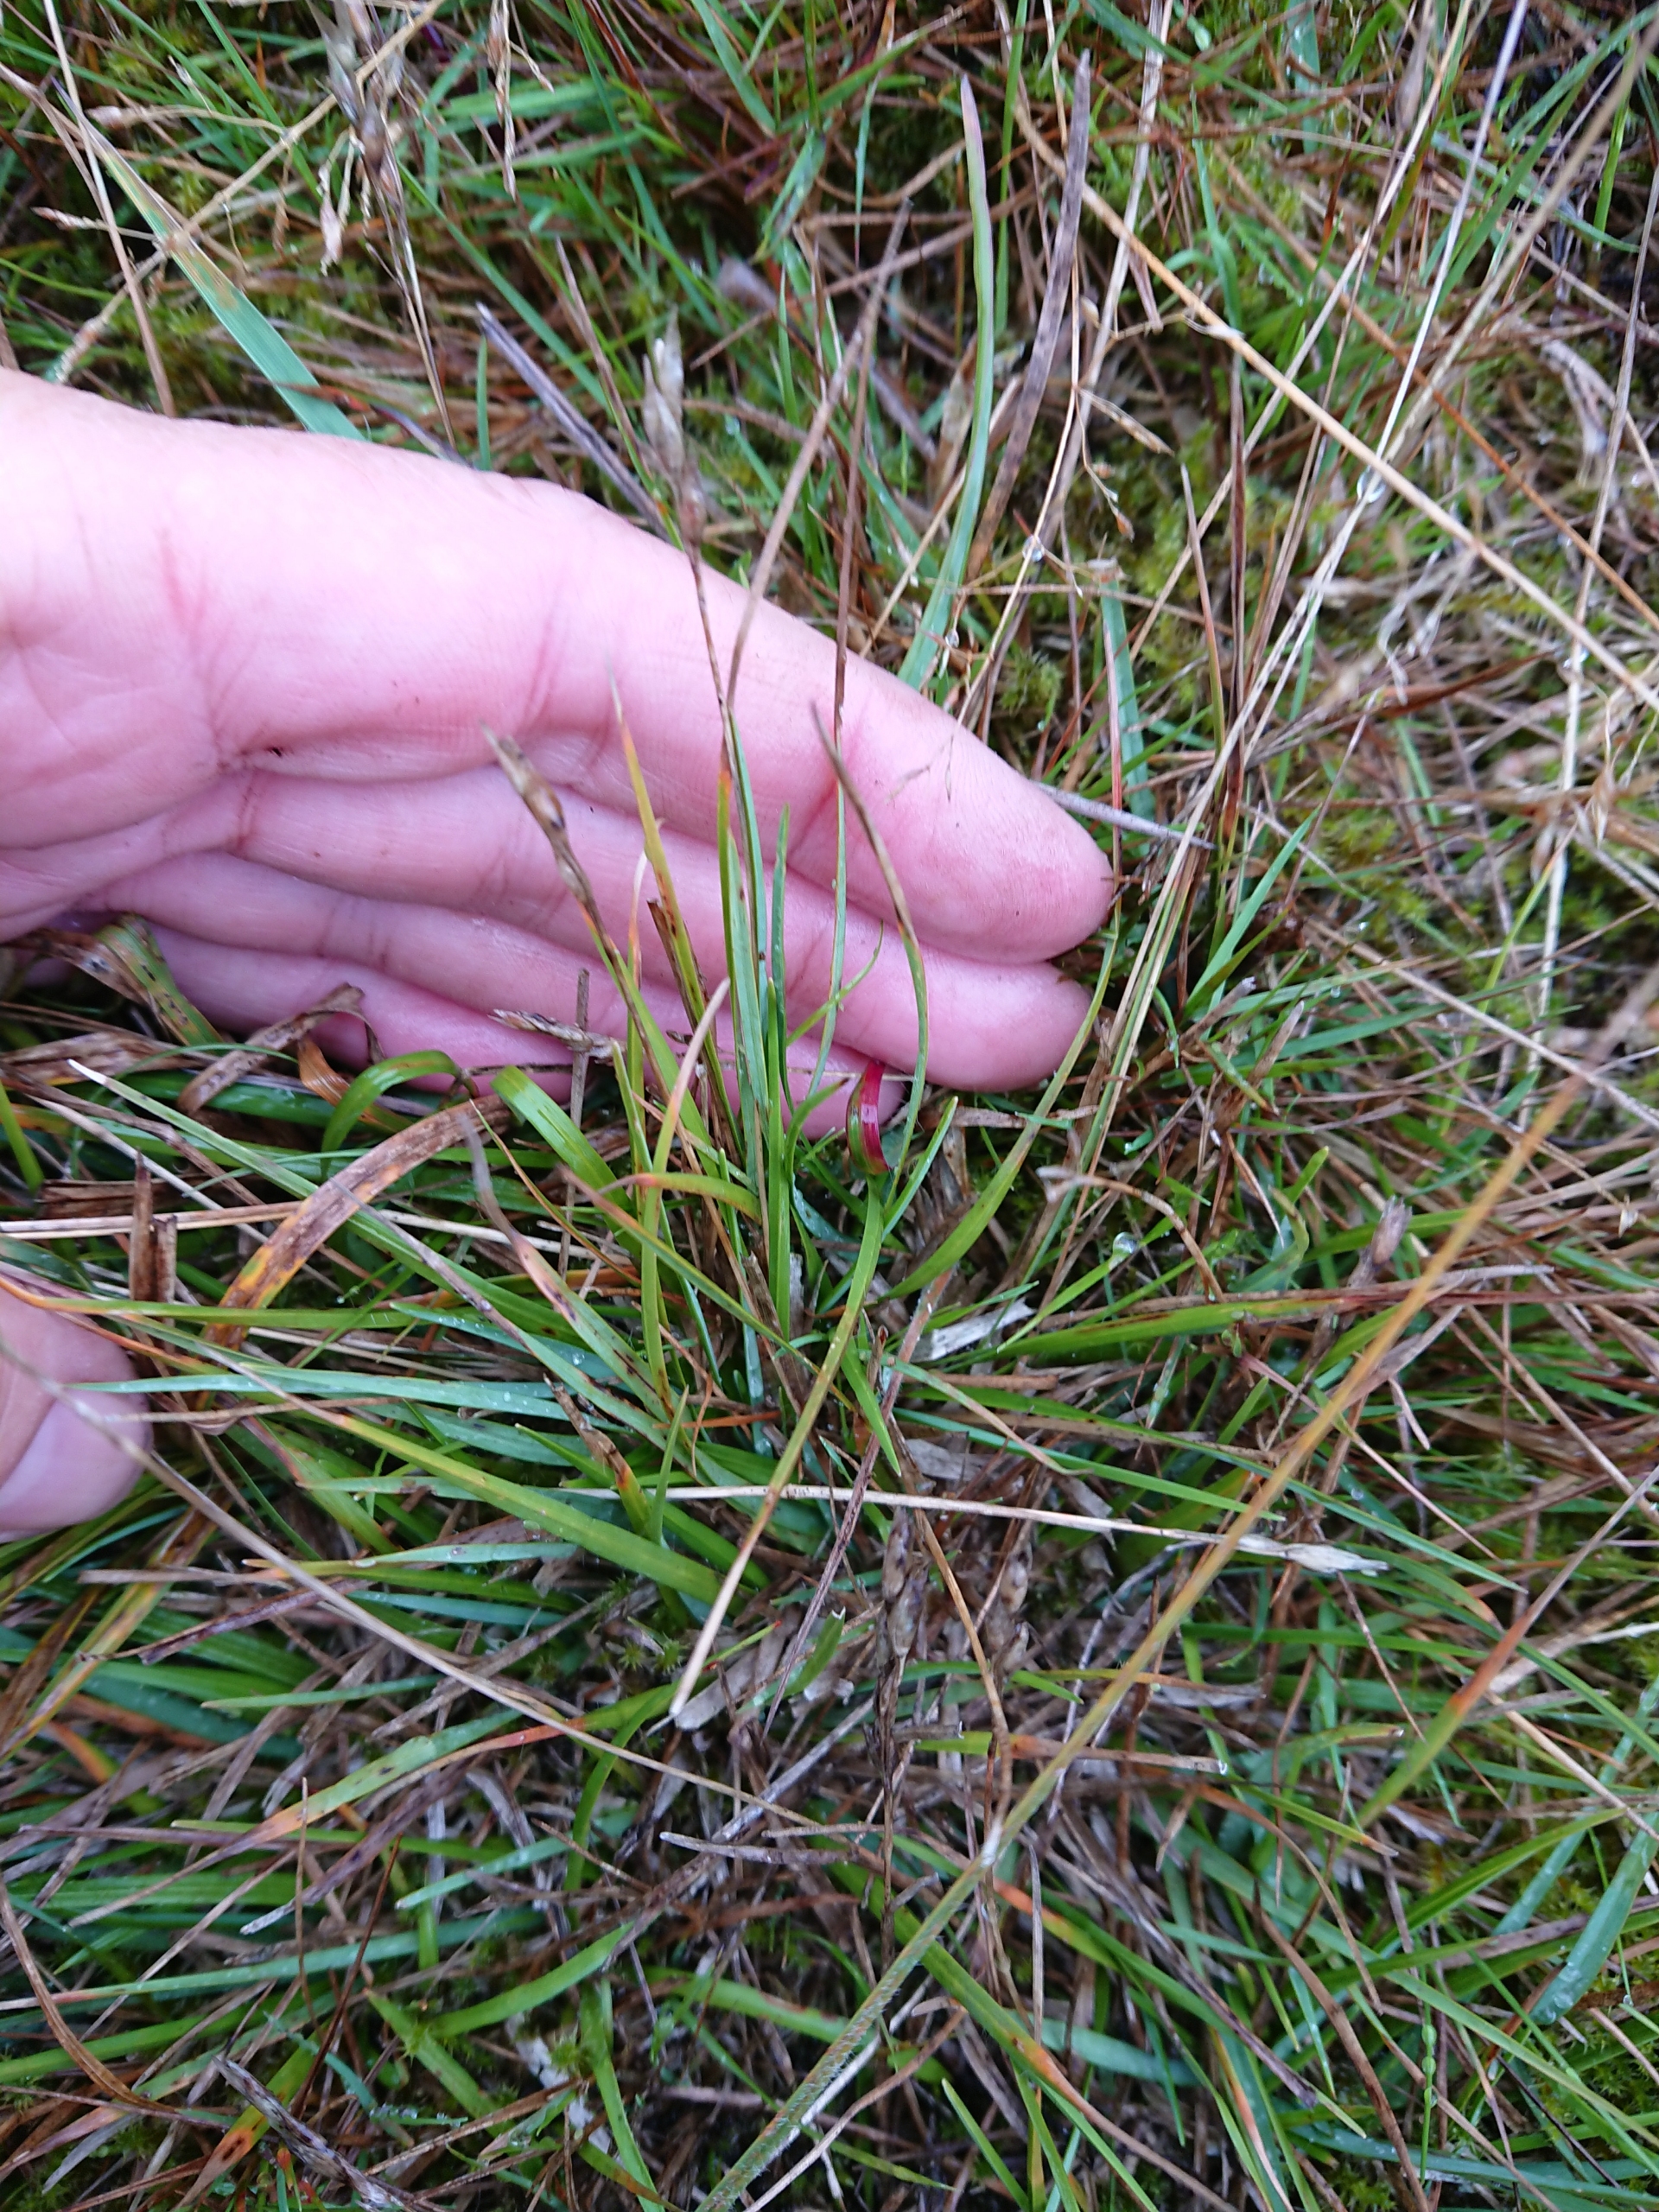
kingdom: Plantae
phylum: Tracheophyta
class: Liliopsida
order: Poales
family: Poaceae
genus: Danthonia
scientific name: Danthonia decumbens
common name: Tandbælg
